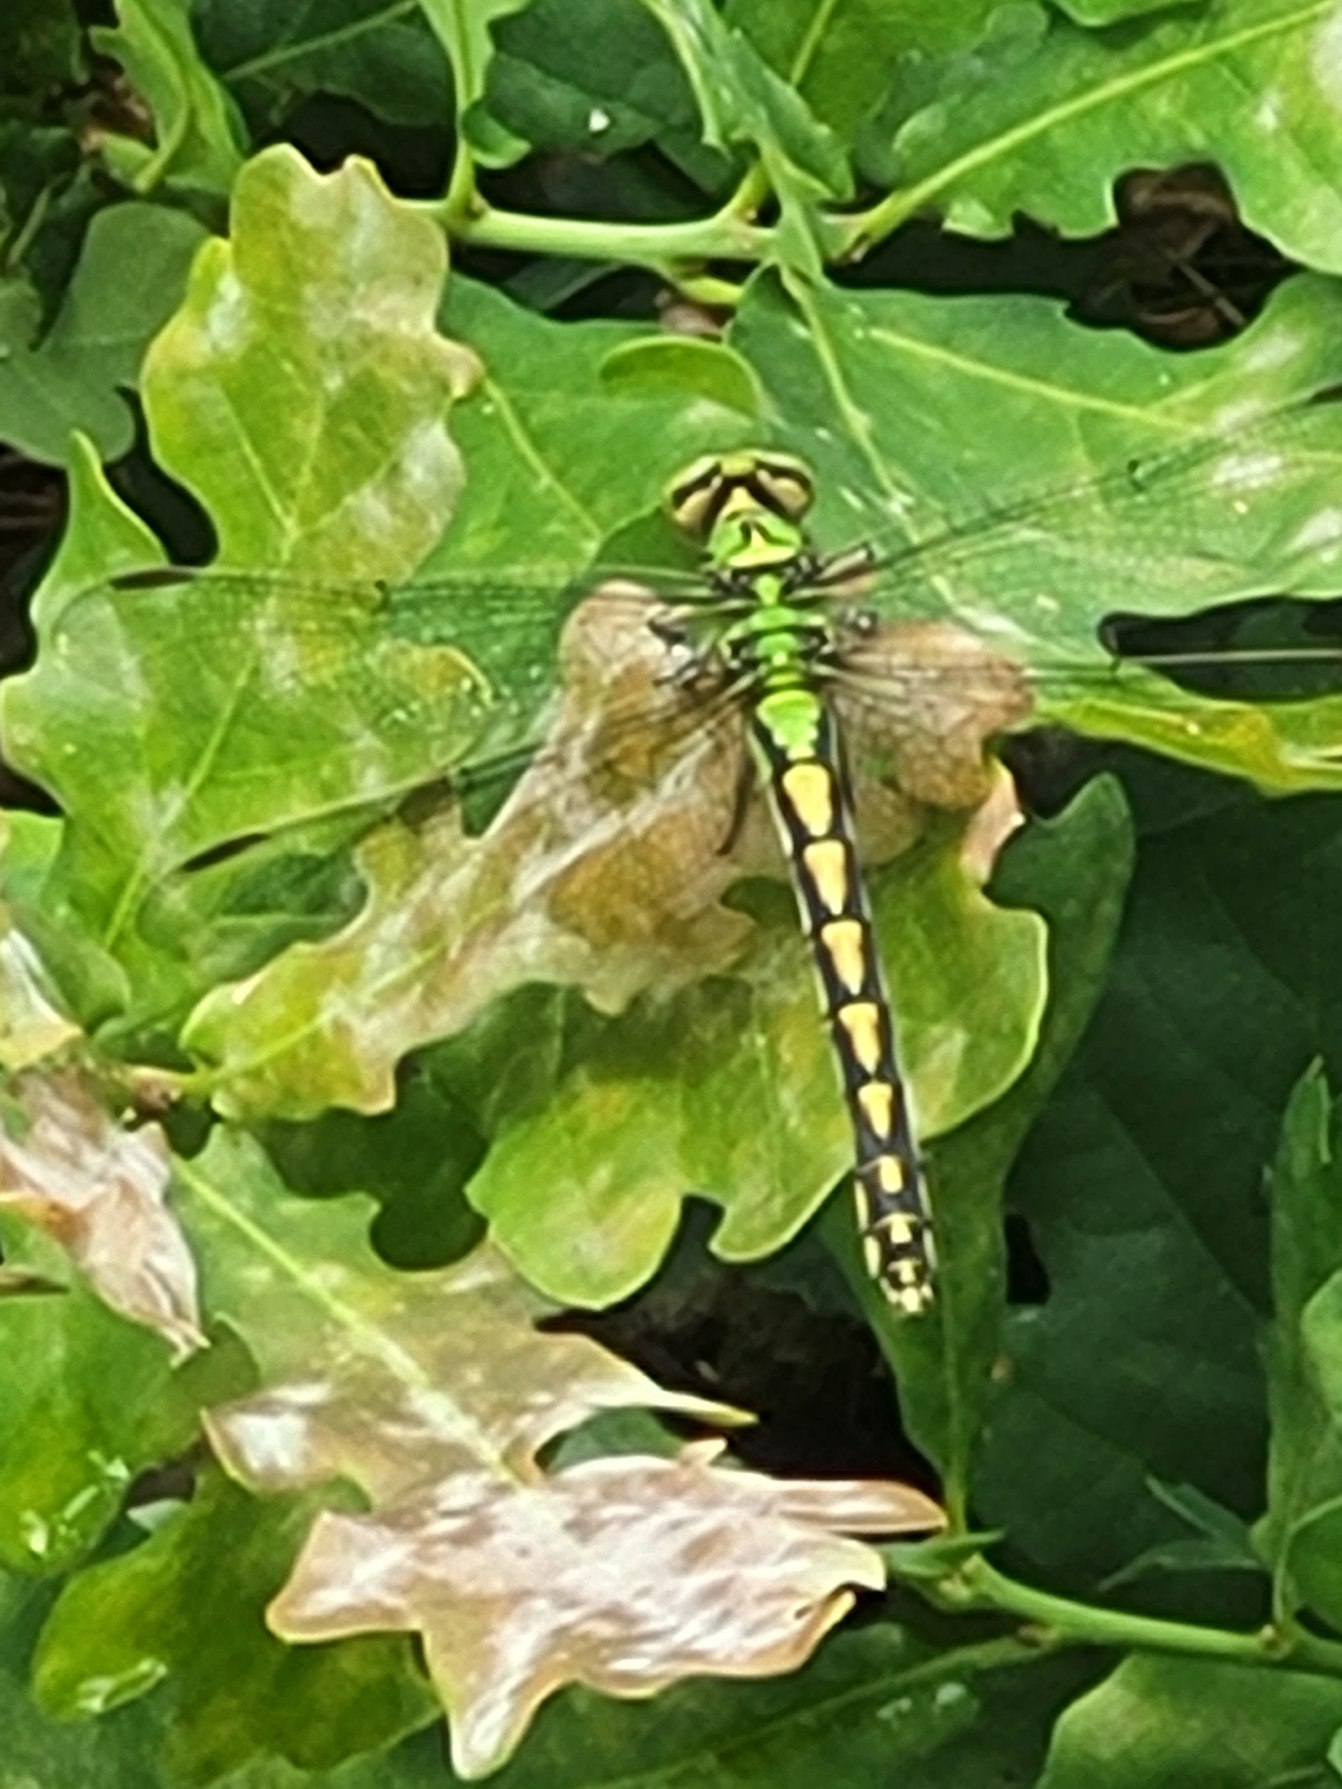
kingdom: Animalia
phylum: Arthropoda
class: Insecta
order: Odonata
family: Gomphidae
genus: Ophiogomphus
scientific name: Ophiogomphus cecilia
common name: Grøn kølleguldsmed
